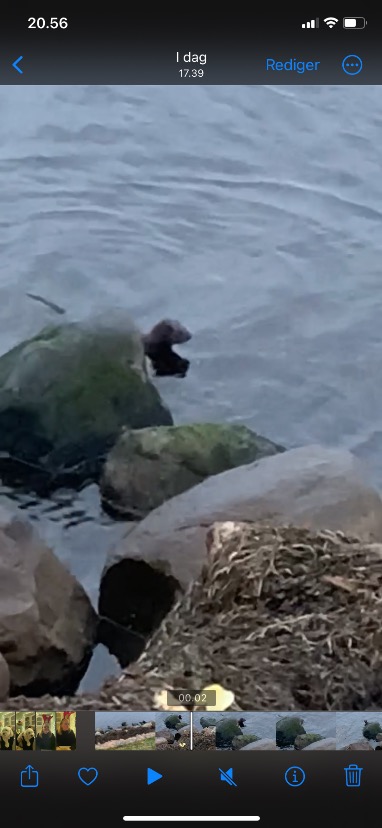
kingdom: Animalia
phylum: Chordata
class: Mammalia
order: Carnivora
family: Mustelidae
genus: Mustela
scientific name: Mustela vison
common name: Mink
